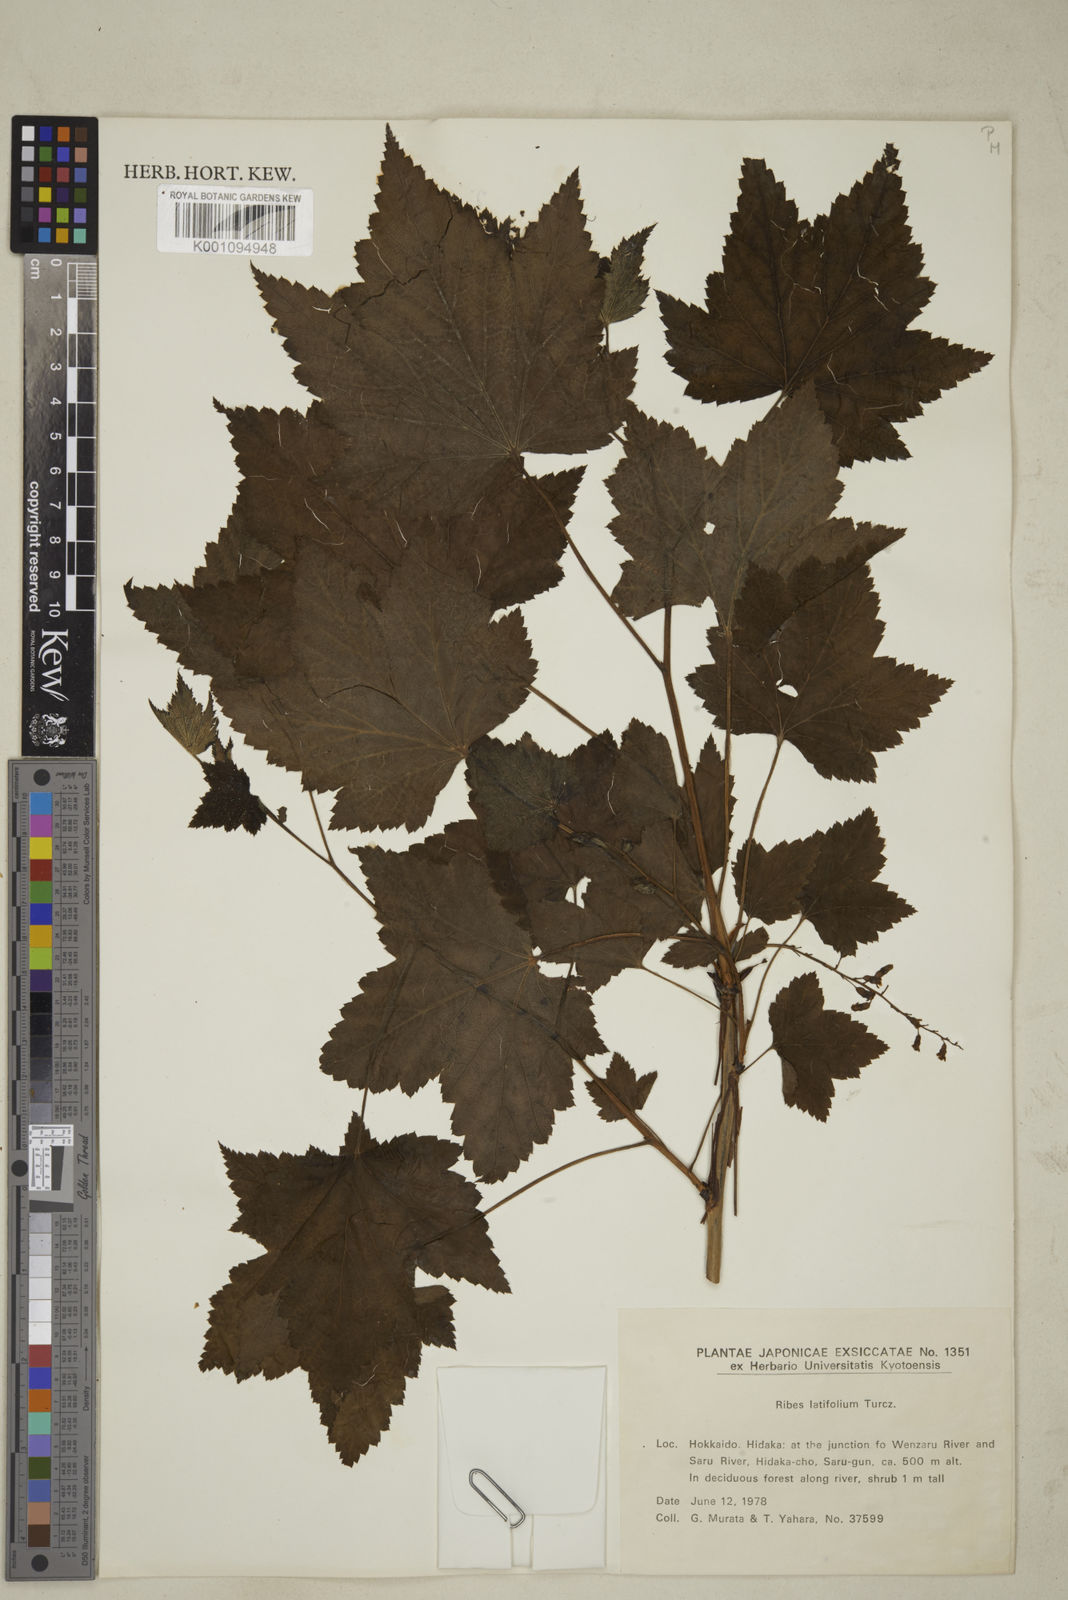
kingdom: Plantae
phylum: Tracheophyta
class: Magnoliopsida
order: Saxifragales
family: Grossulariaceae
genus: Ribes
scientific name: Ribes latifolium
